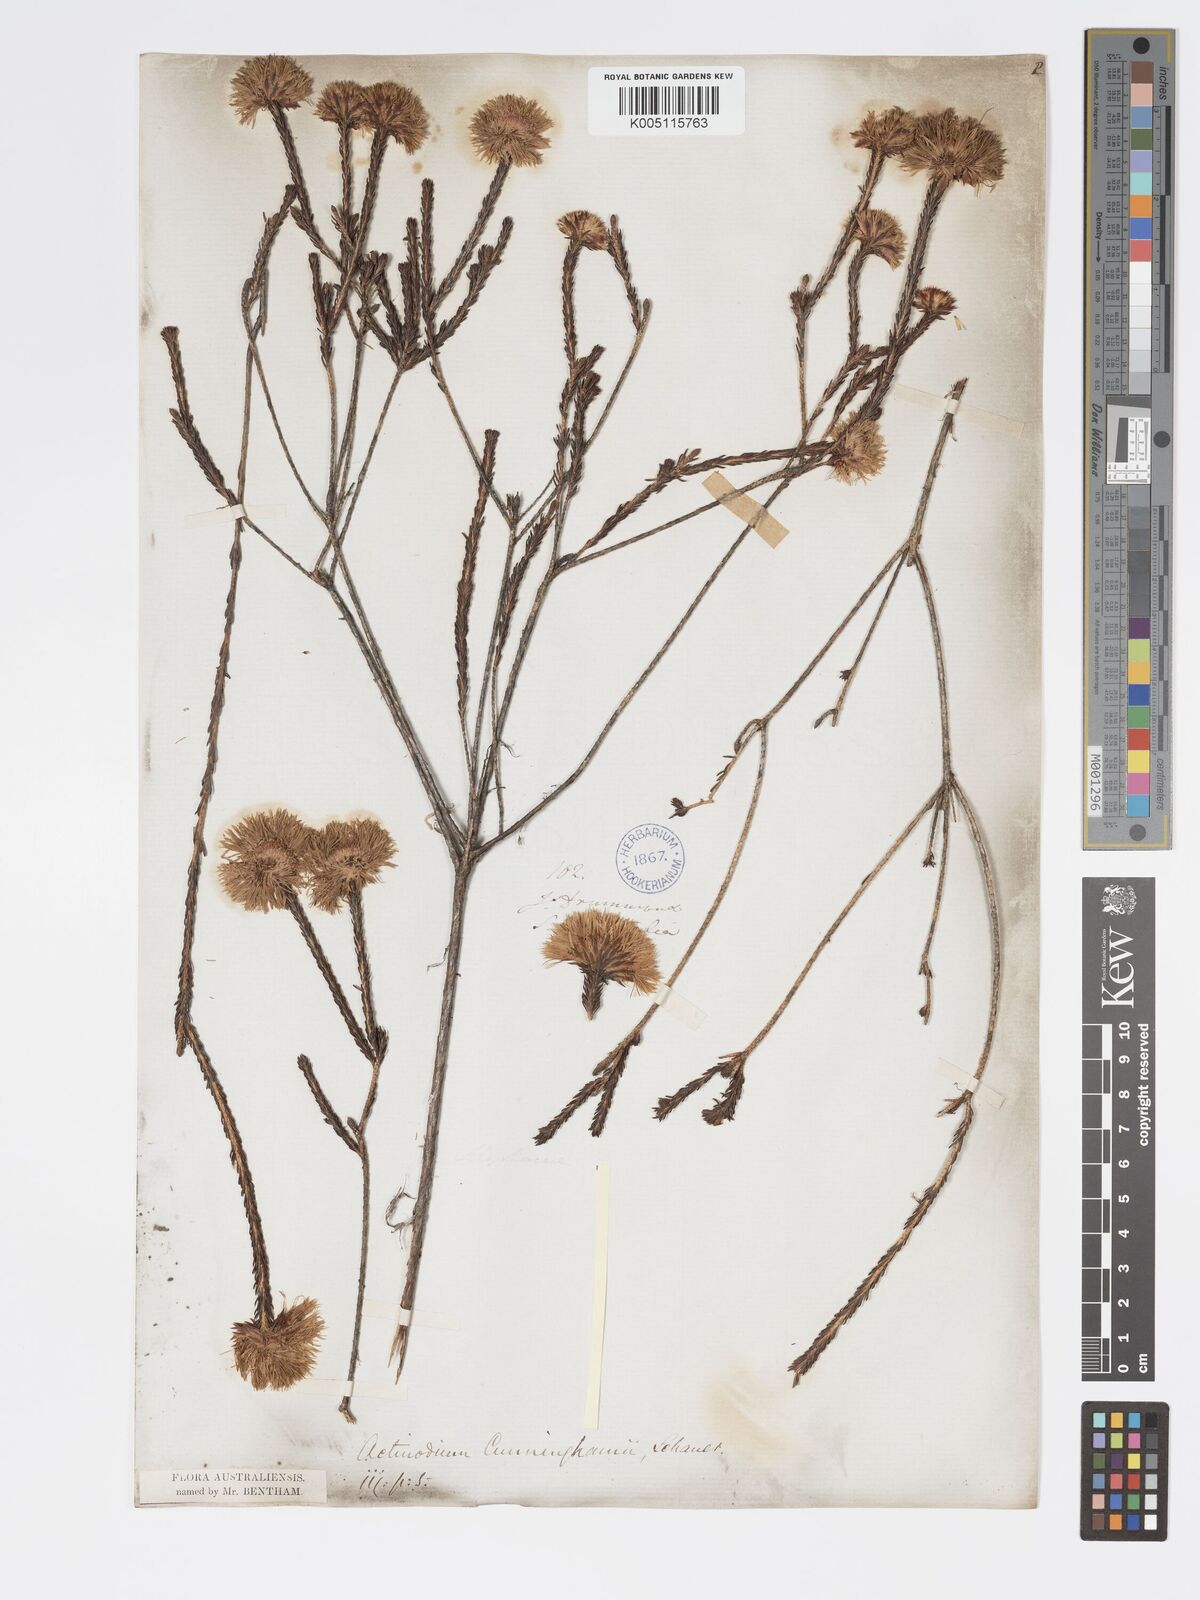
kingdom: Plantae
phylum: Tracheophyta
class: Magnoliopsida
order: Myrtales
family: Myrtaceae
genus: Actinodium
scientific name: Actinodium cunninghamii
